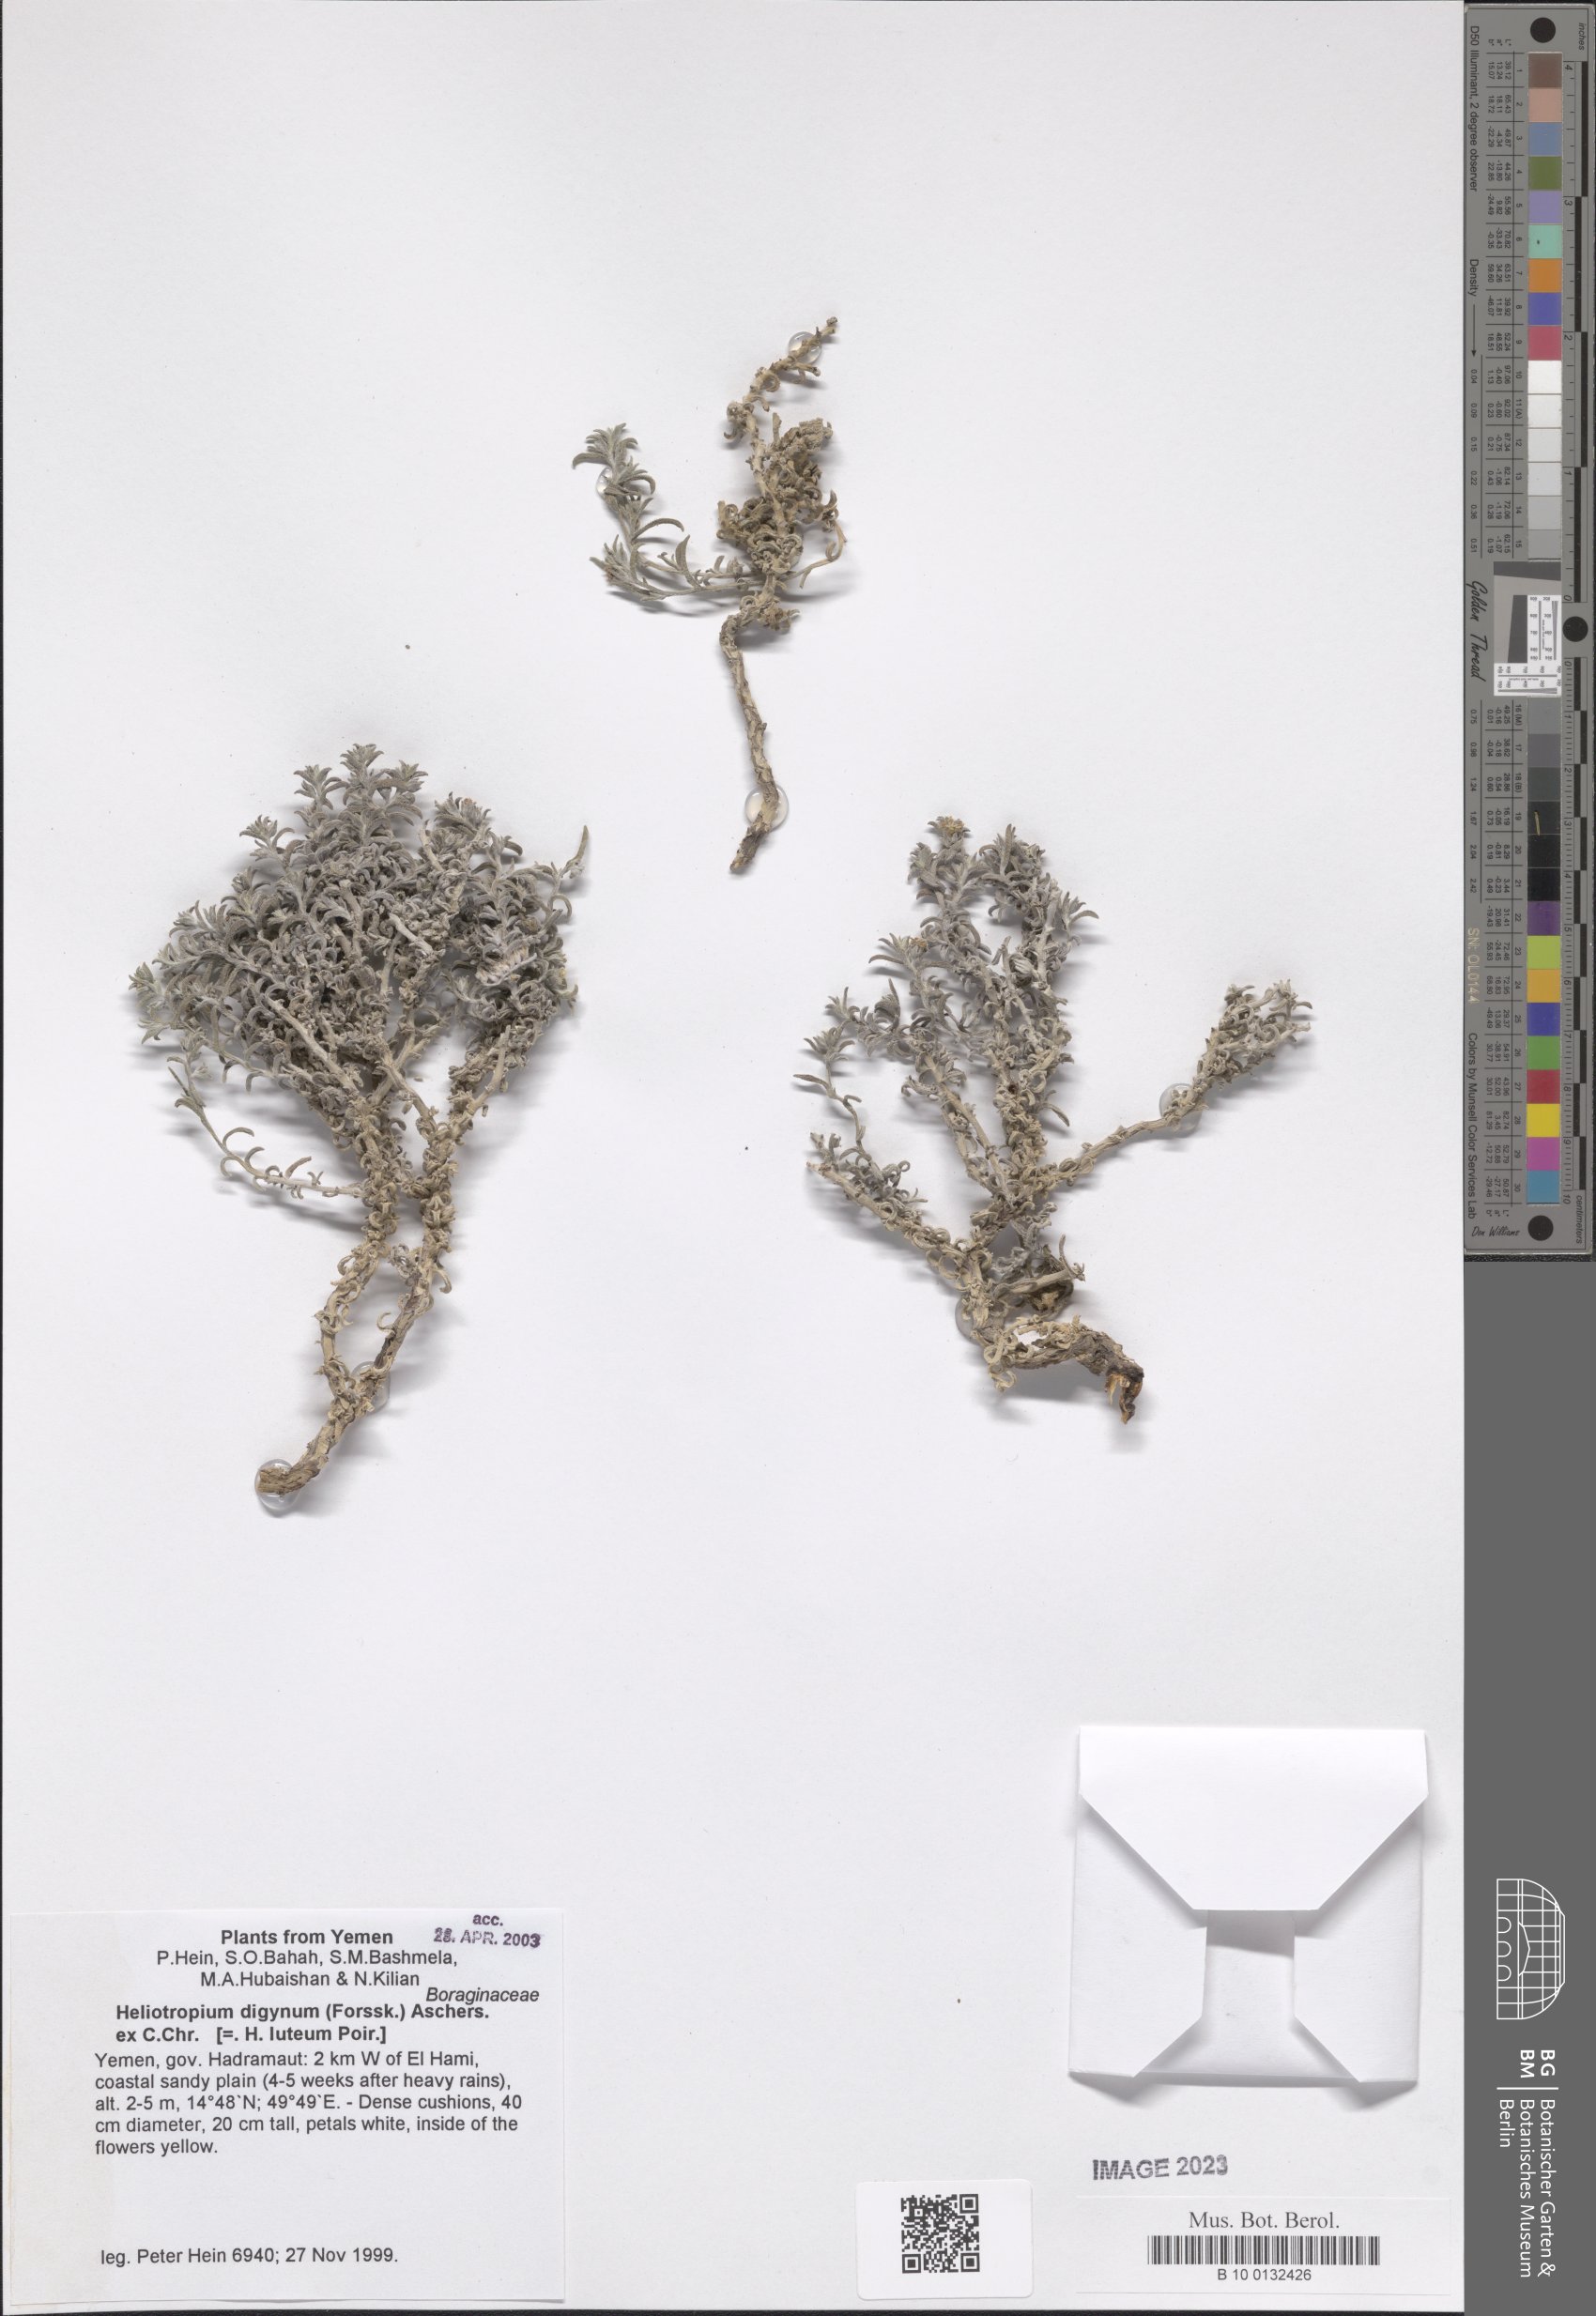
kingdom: Plantae
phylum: Tracheophyta
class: Magnoliopsida
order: Boraginales
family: Heliotropiaceae
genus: Heliotropium
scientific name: Heliotropium digynum
